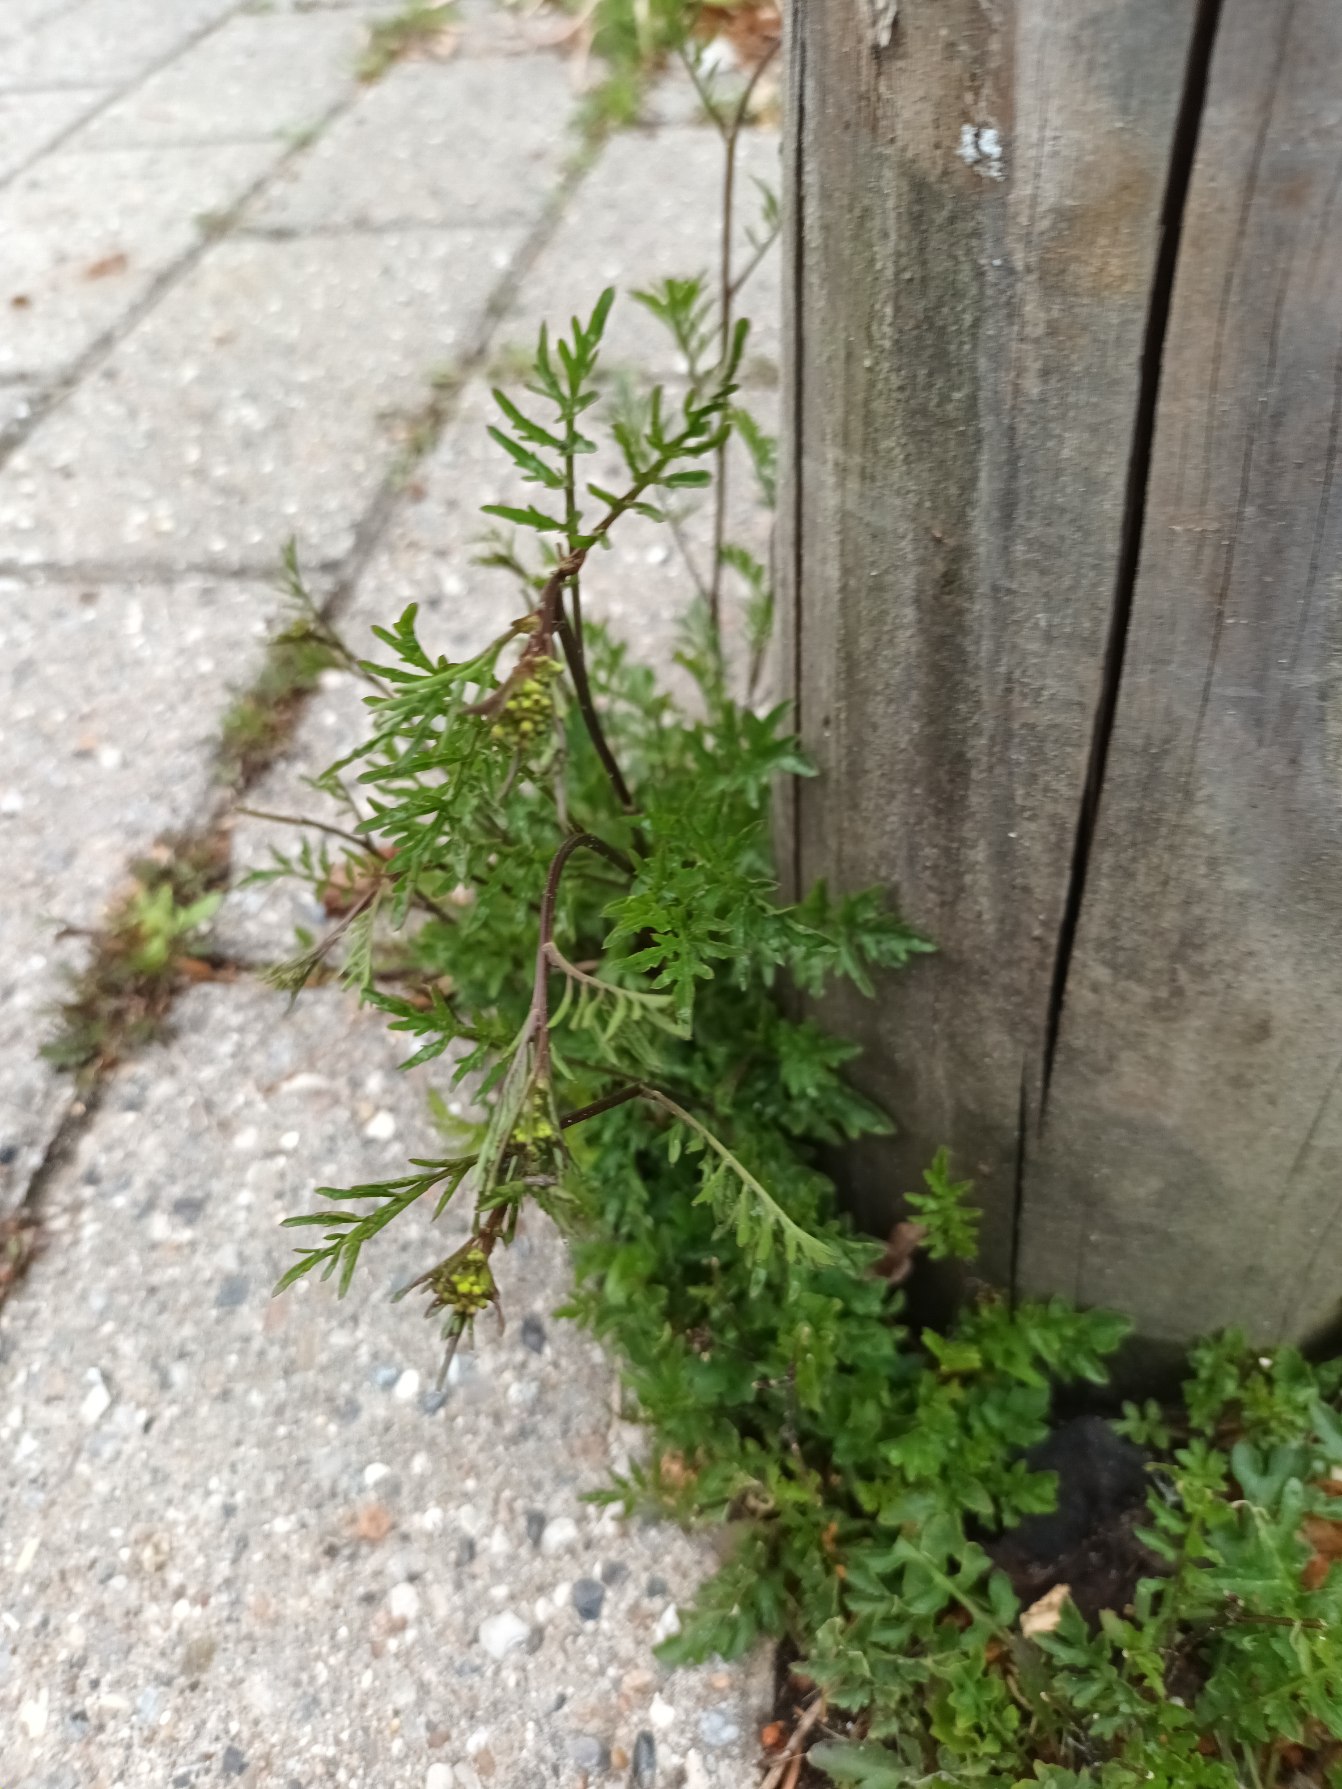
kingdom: Plantae
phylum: Tracheophyta
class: Magnoliopsida
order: Brassicales
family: Brassicaceae
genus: Rorippa
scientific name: Rorippa sylvestris
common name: Vej-guldkarse
